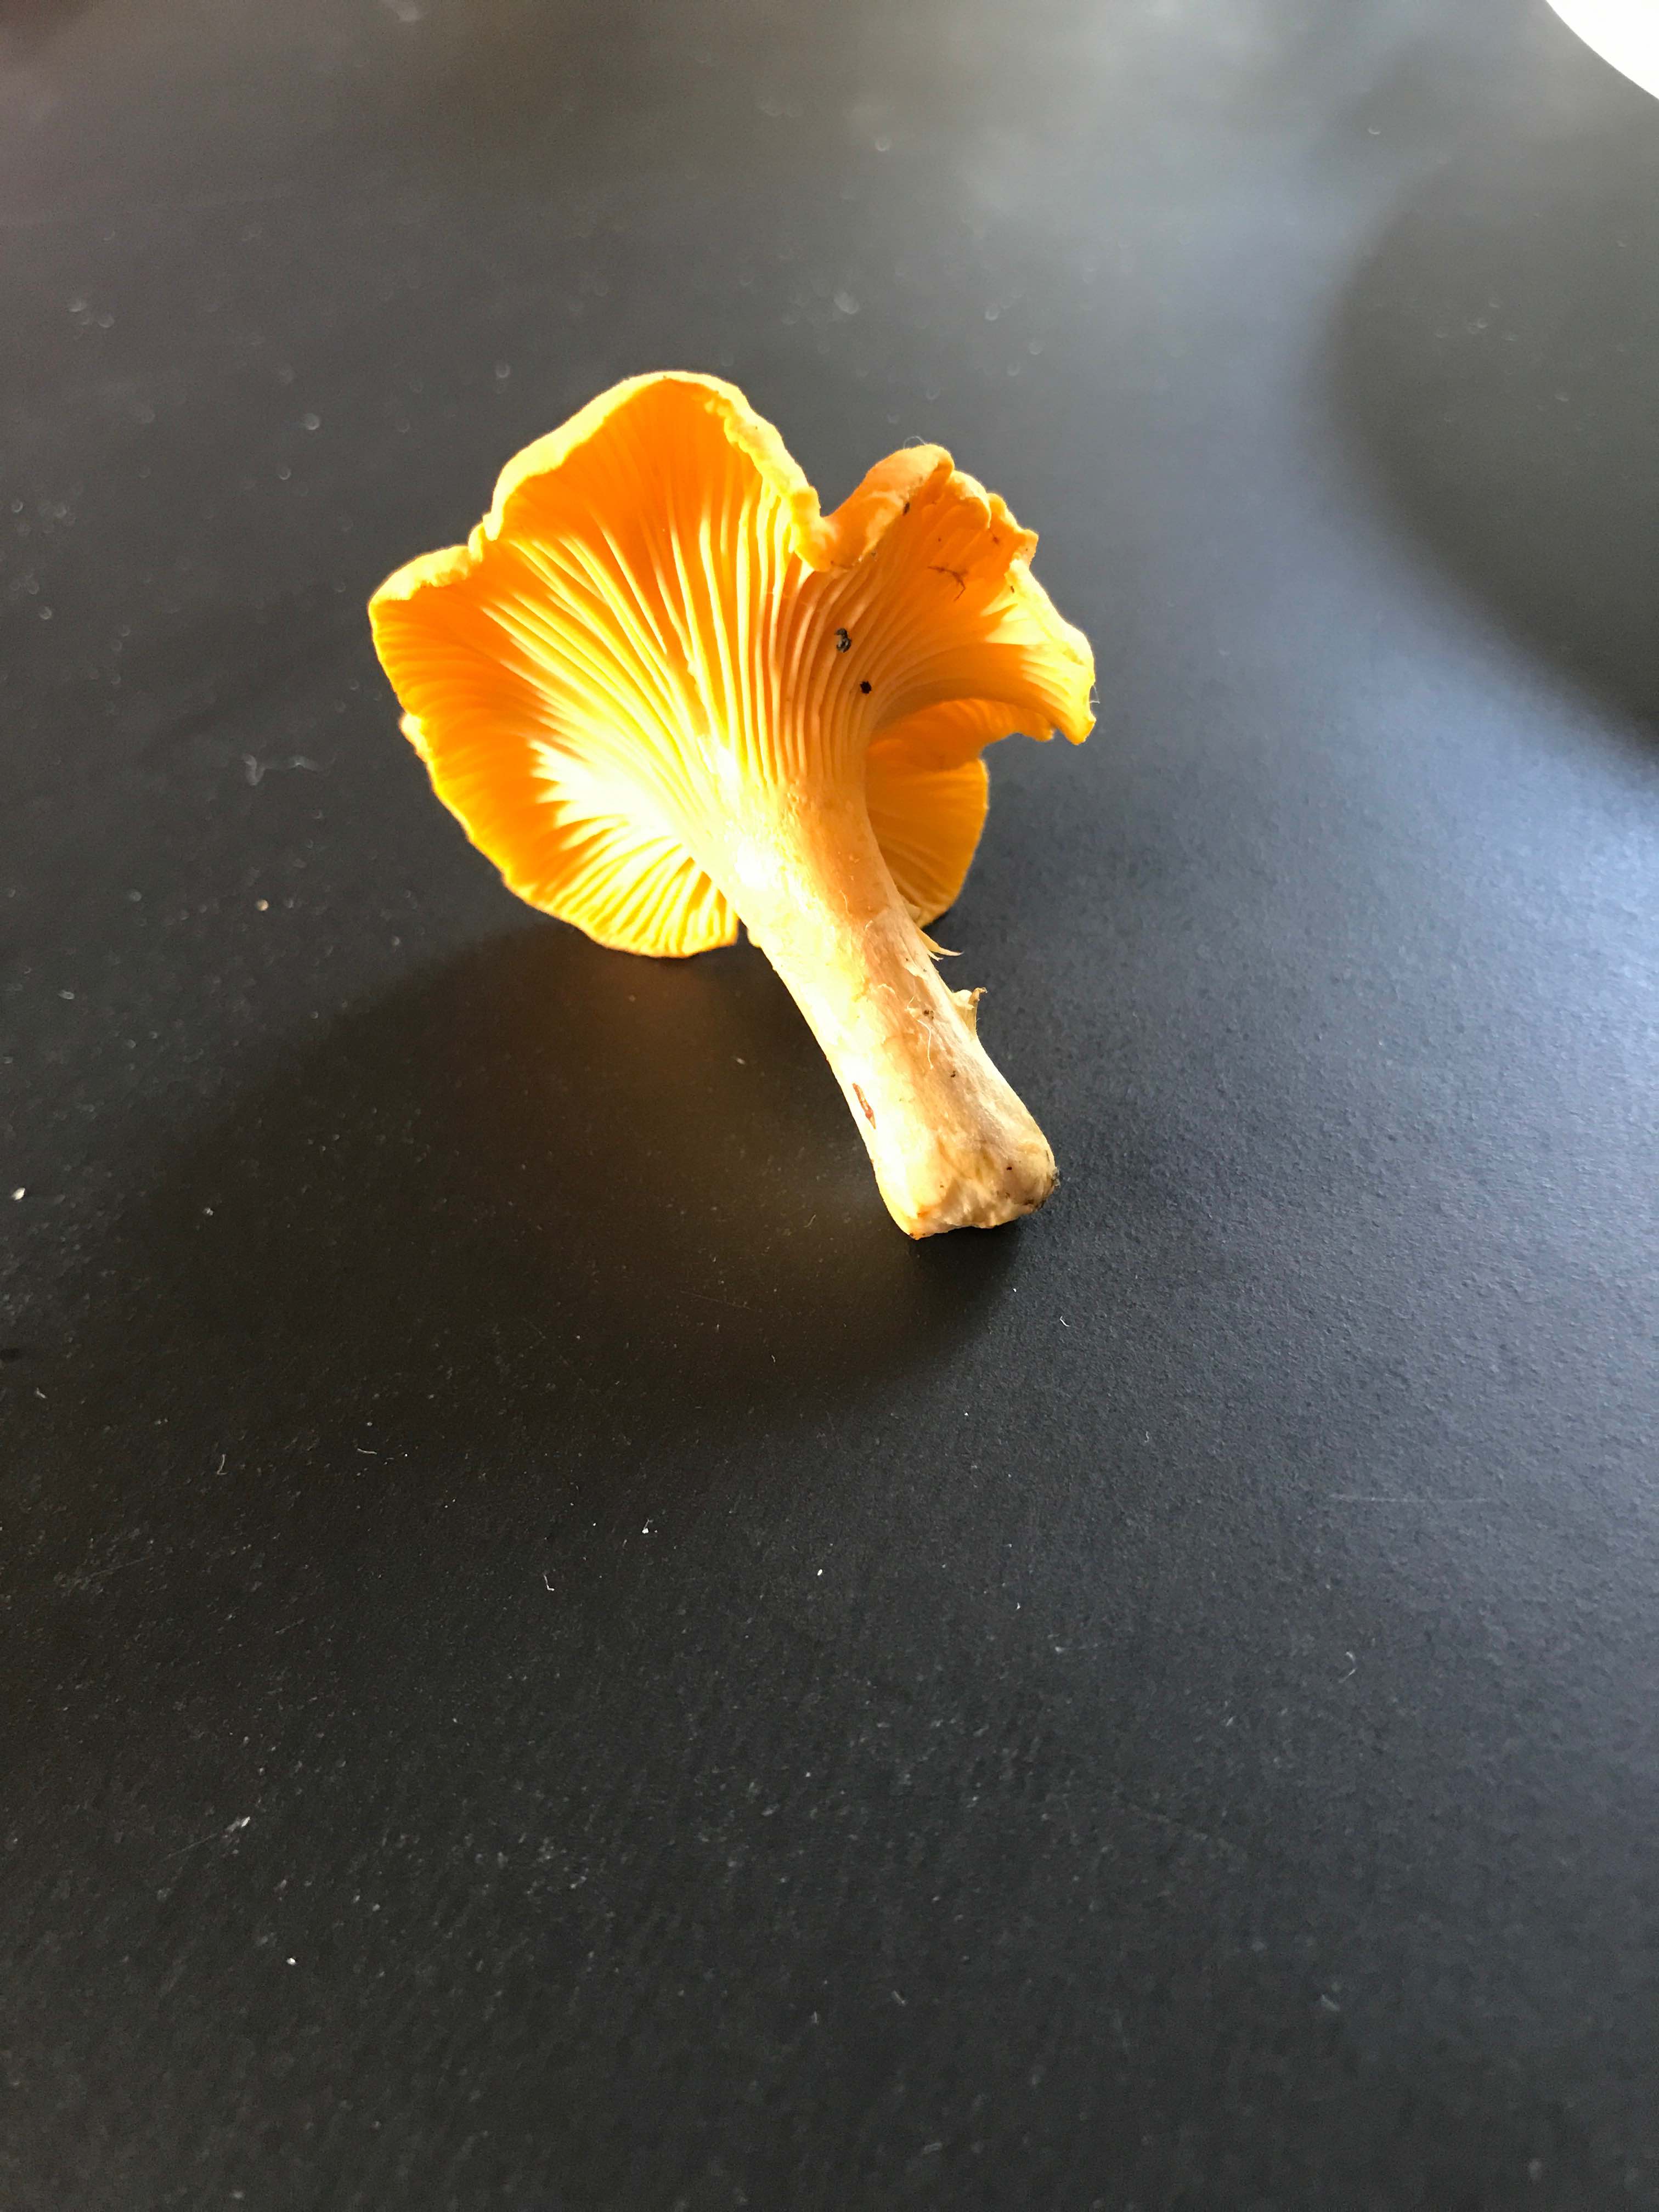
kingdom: Fungi
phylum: Basidiomycota
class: Agaricomycetes
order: Cantharellales
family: Hydnaceae
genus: Cantharellus
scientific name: Cantharellus cibarius
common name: almindelig kantarel
